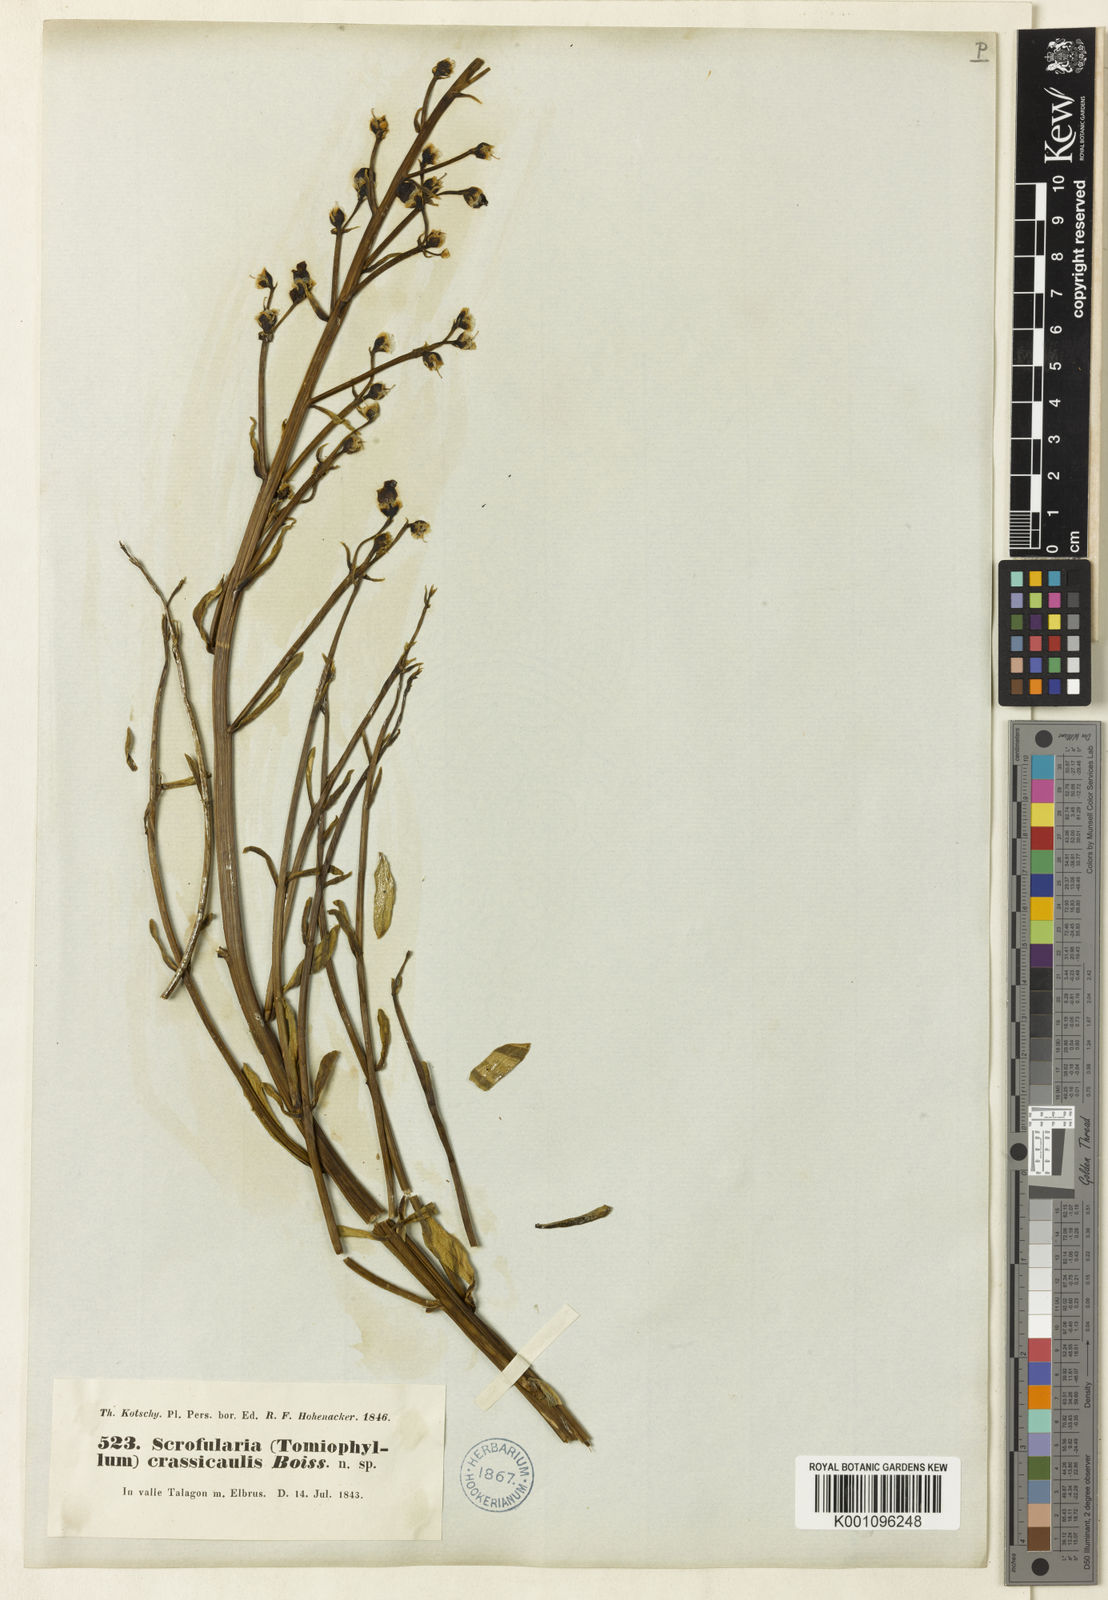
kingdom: Plantae
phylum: Tracheophyta
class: Magnoliopsida
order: Lamiales
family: Scrophulariaceae
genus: Scrophularia
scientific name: Scrophularia pruinosa
